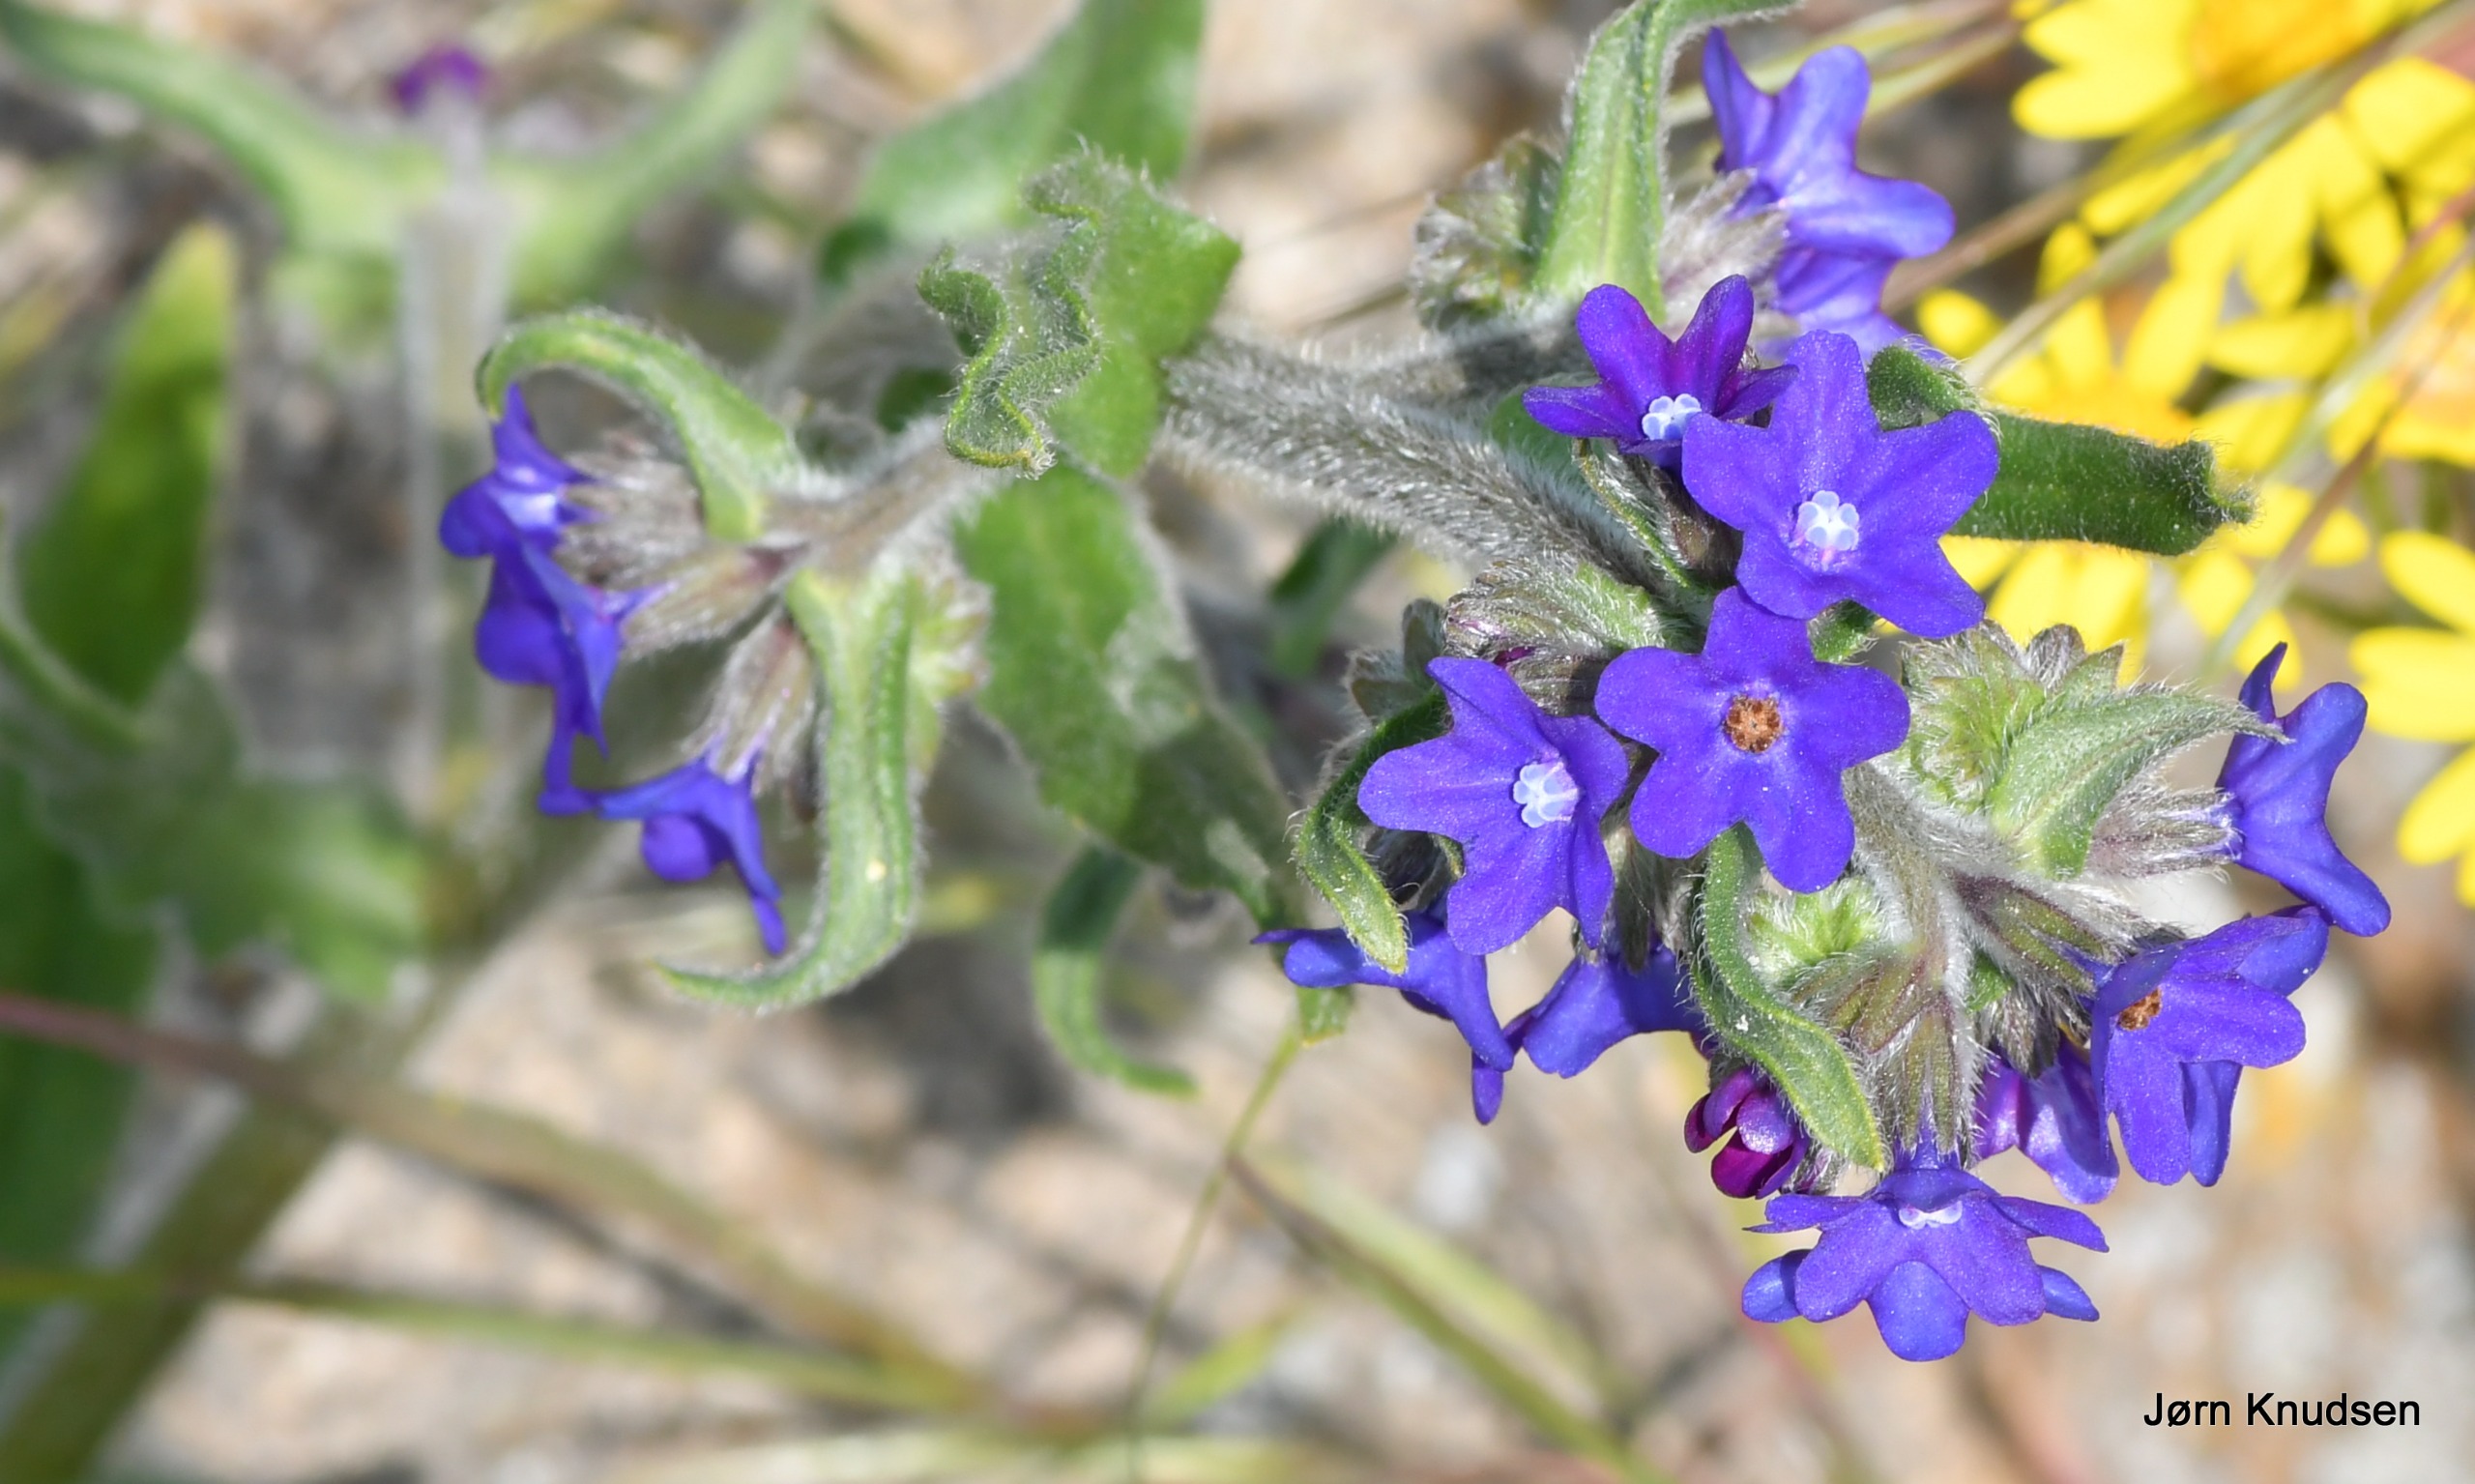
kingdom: Plantae
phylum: Tracheophyta
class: Magnoliopsida
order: Boraginales
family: Boraginaceae
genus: Anchusa
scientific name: Anchusa officinalis
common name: Læge-oksetunge
